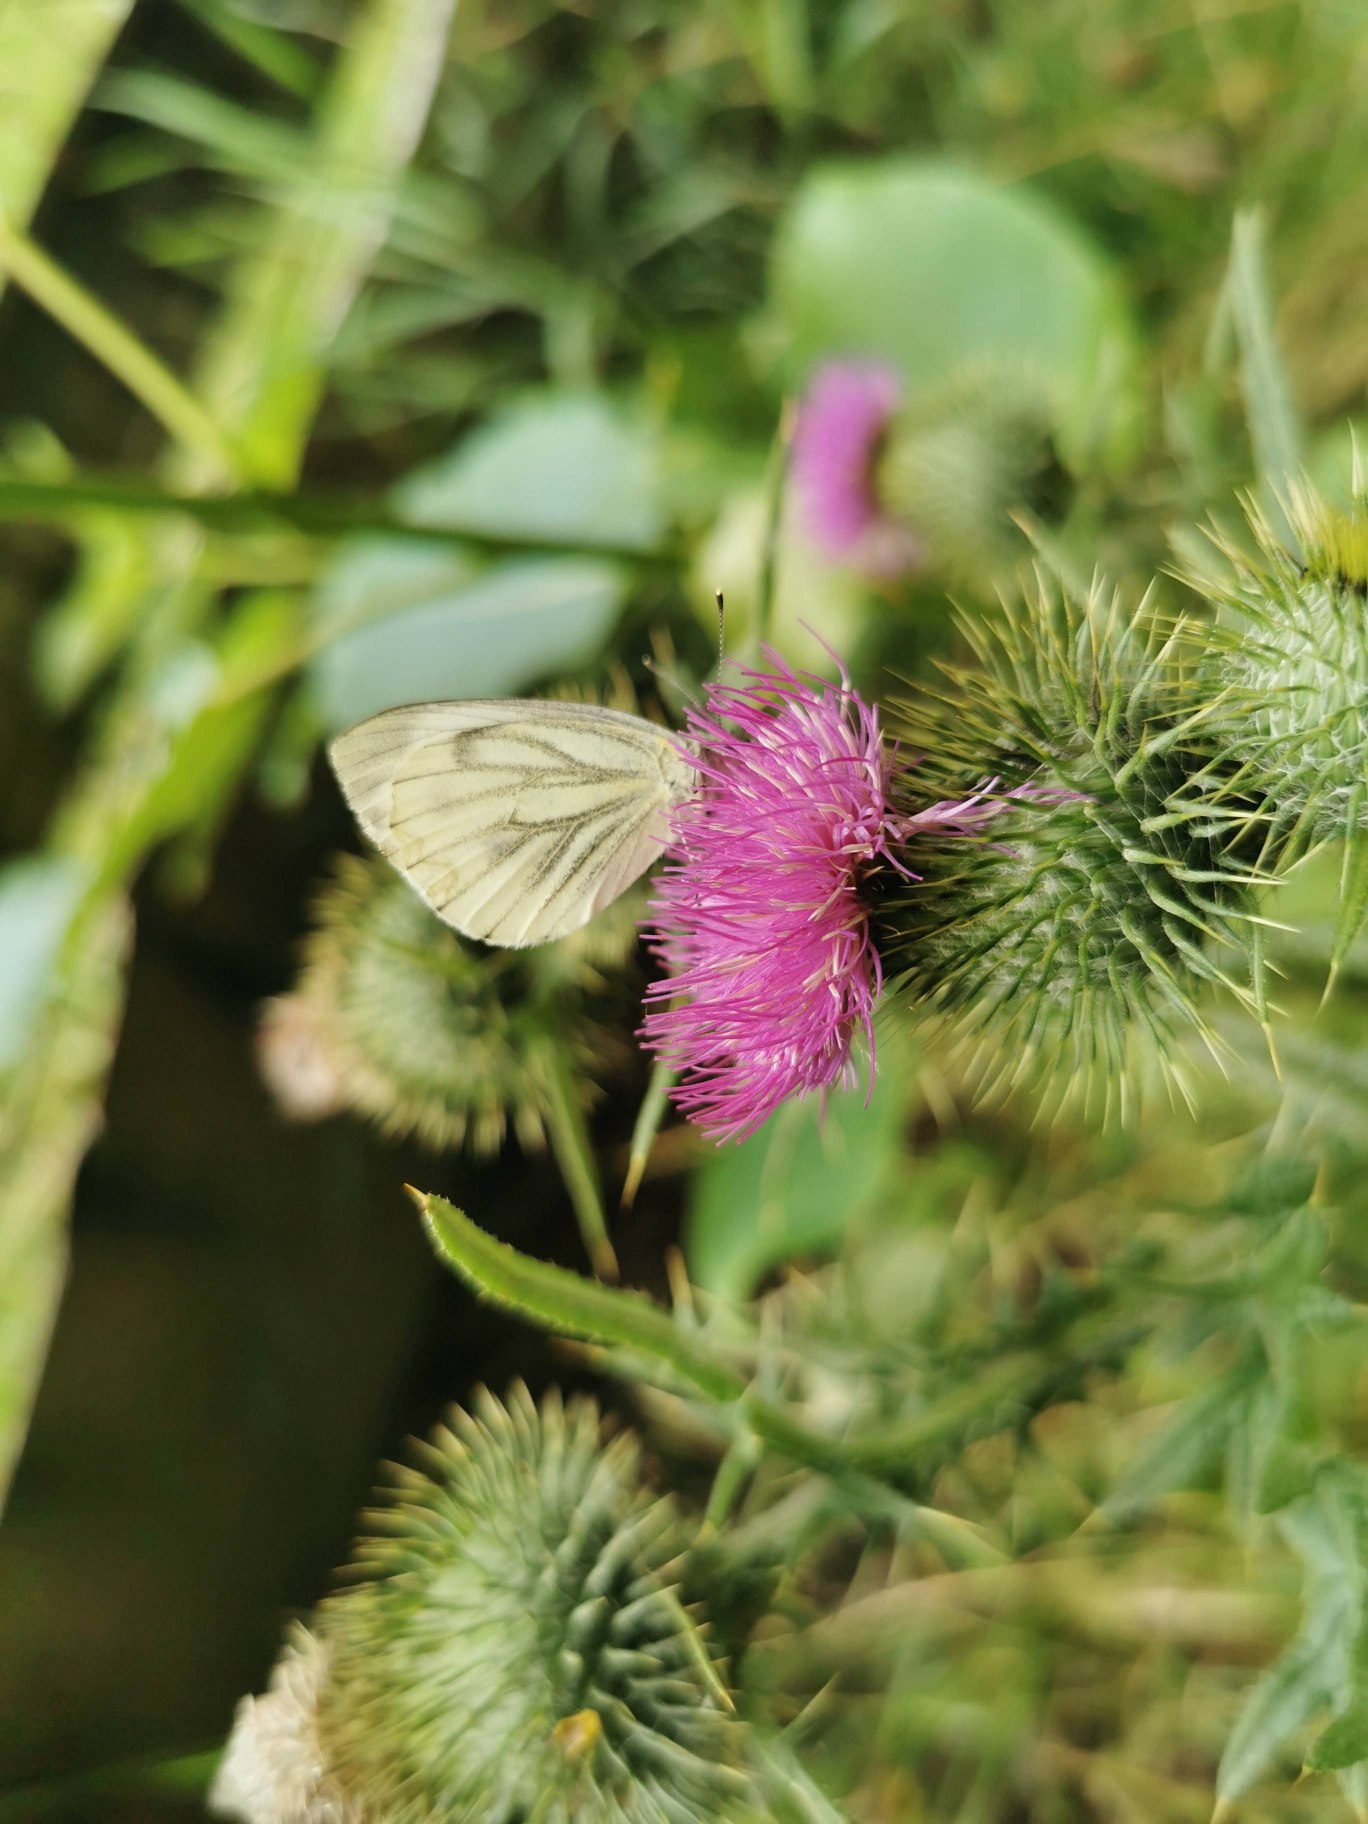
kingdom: Animalia
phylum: Arthropoda
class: Insecta
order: Lepidoptera
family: Pieridae
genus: Pieris
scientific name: Pieris napi
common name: Grønåret kålsommerfugl
